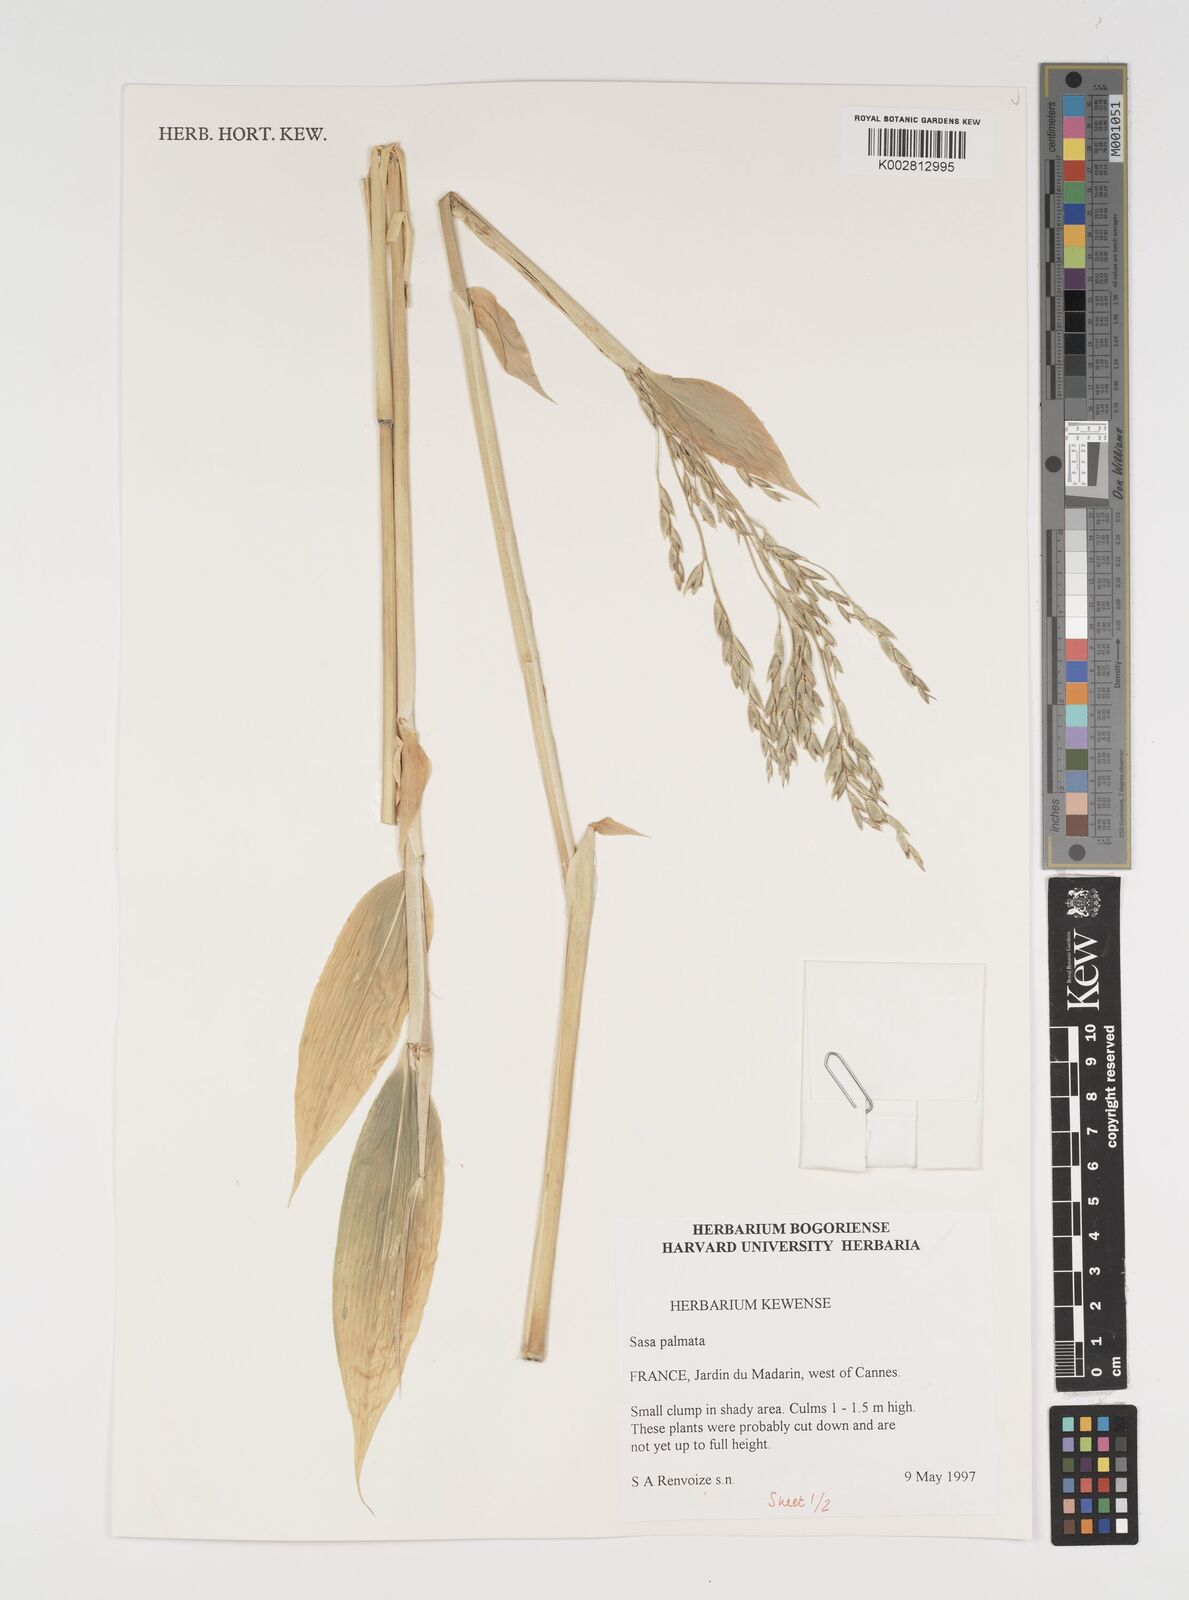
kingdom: Plantae
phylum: Tracheophyta
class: Liliopsida
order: Poales
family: Poaceae
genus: Sasa
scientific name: Sasa palmata
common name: Broad-leaved bamboo
